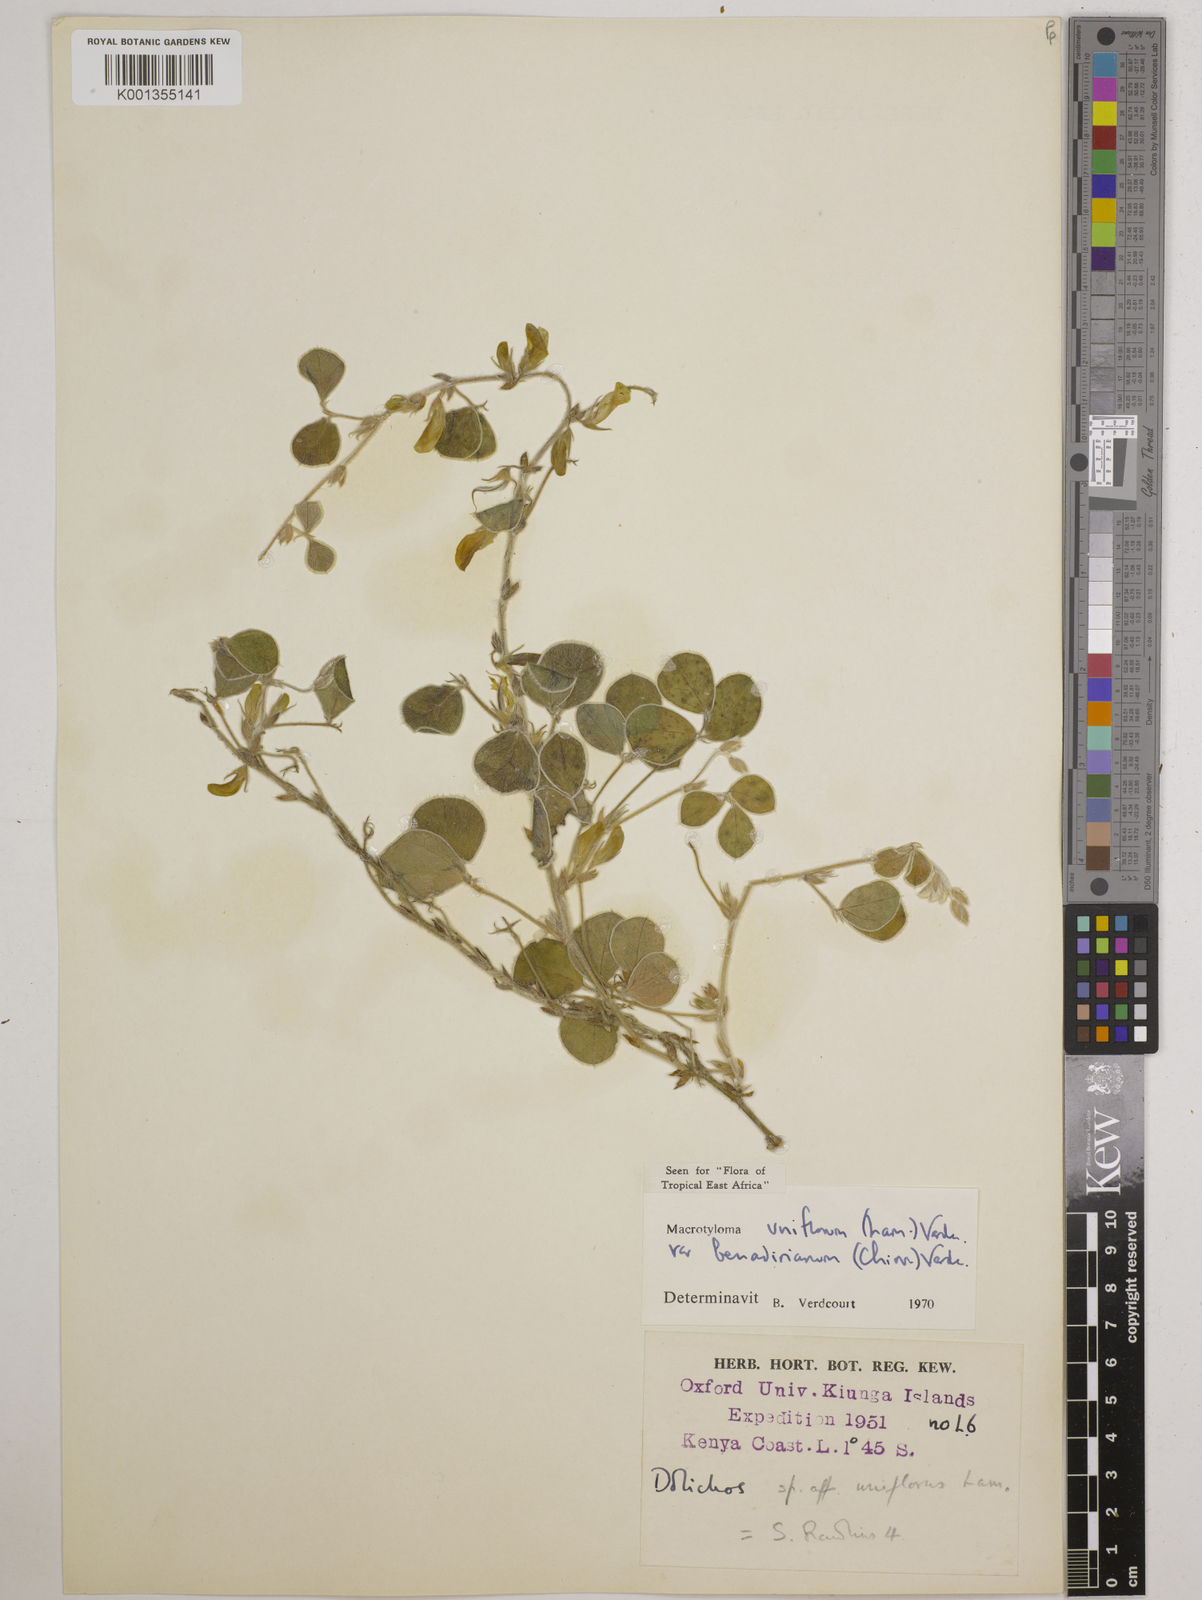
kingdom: Plantae
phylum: Tracheophyta
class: Magnoliopsida
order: Fabales
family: Fabaceae
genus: Macrotyloma
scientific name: Macrotyloma
